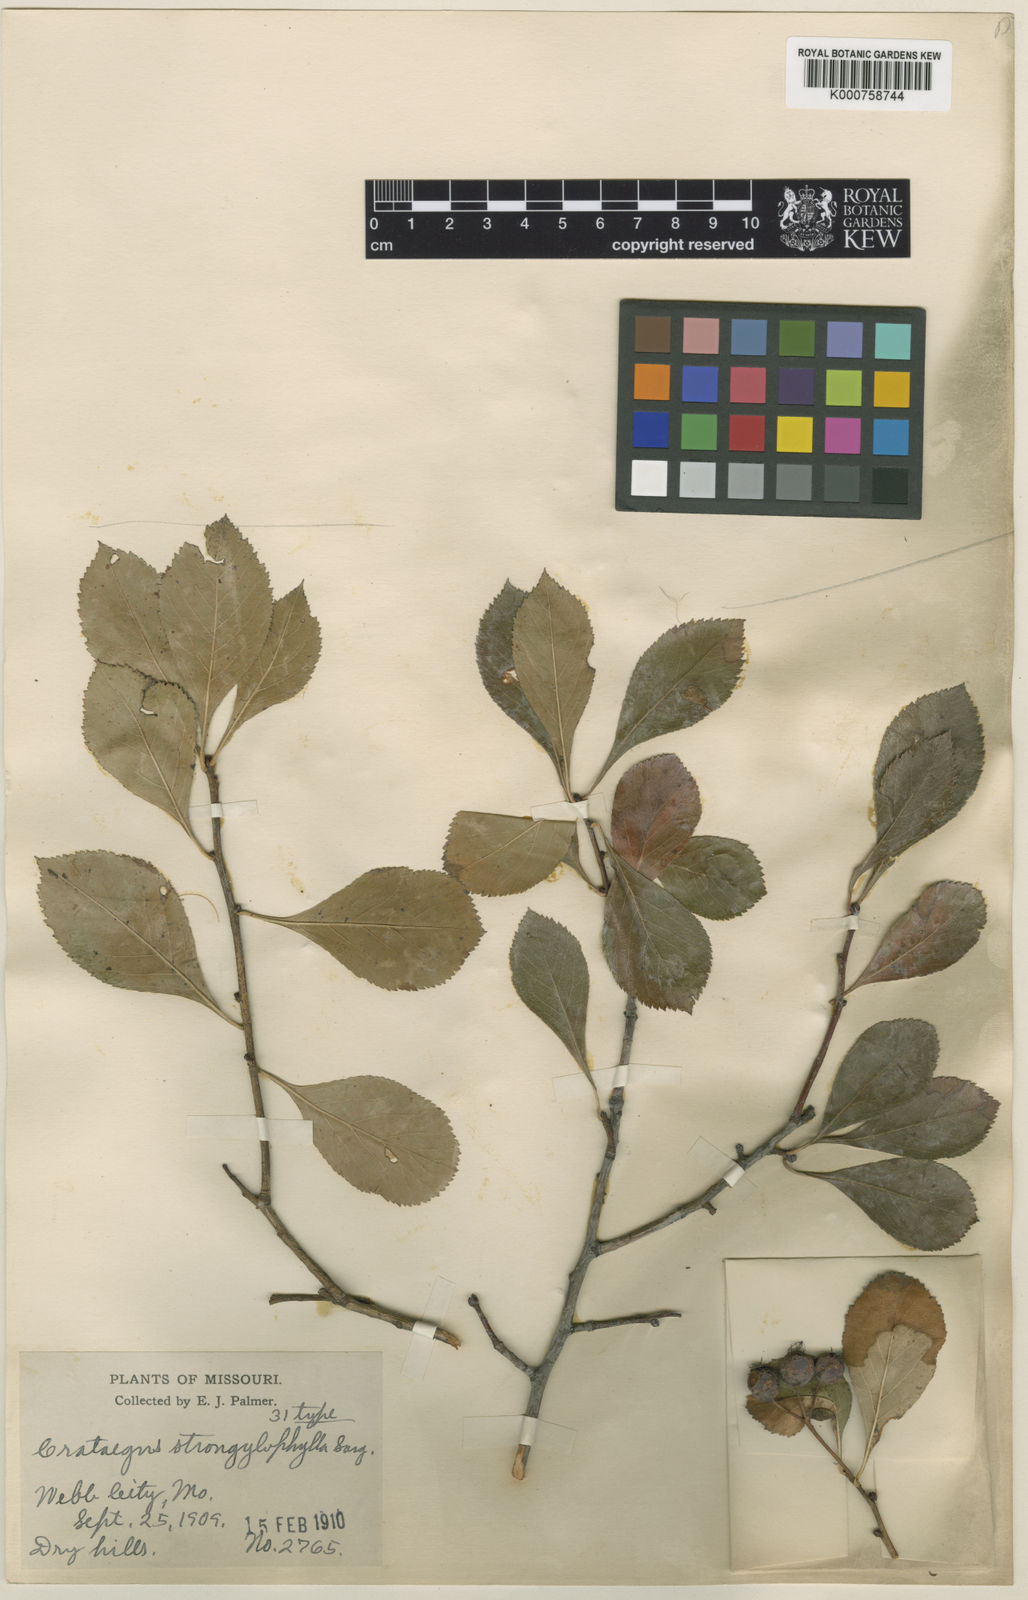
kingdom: Plantae
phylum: Tracheophyta
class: Magnoliopsida
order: Rosales
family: Rosaceae
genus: Crataegus
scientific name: Crataegus strongylophylla
